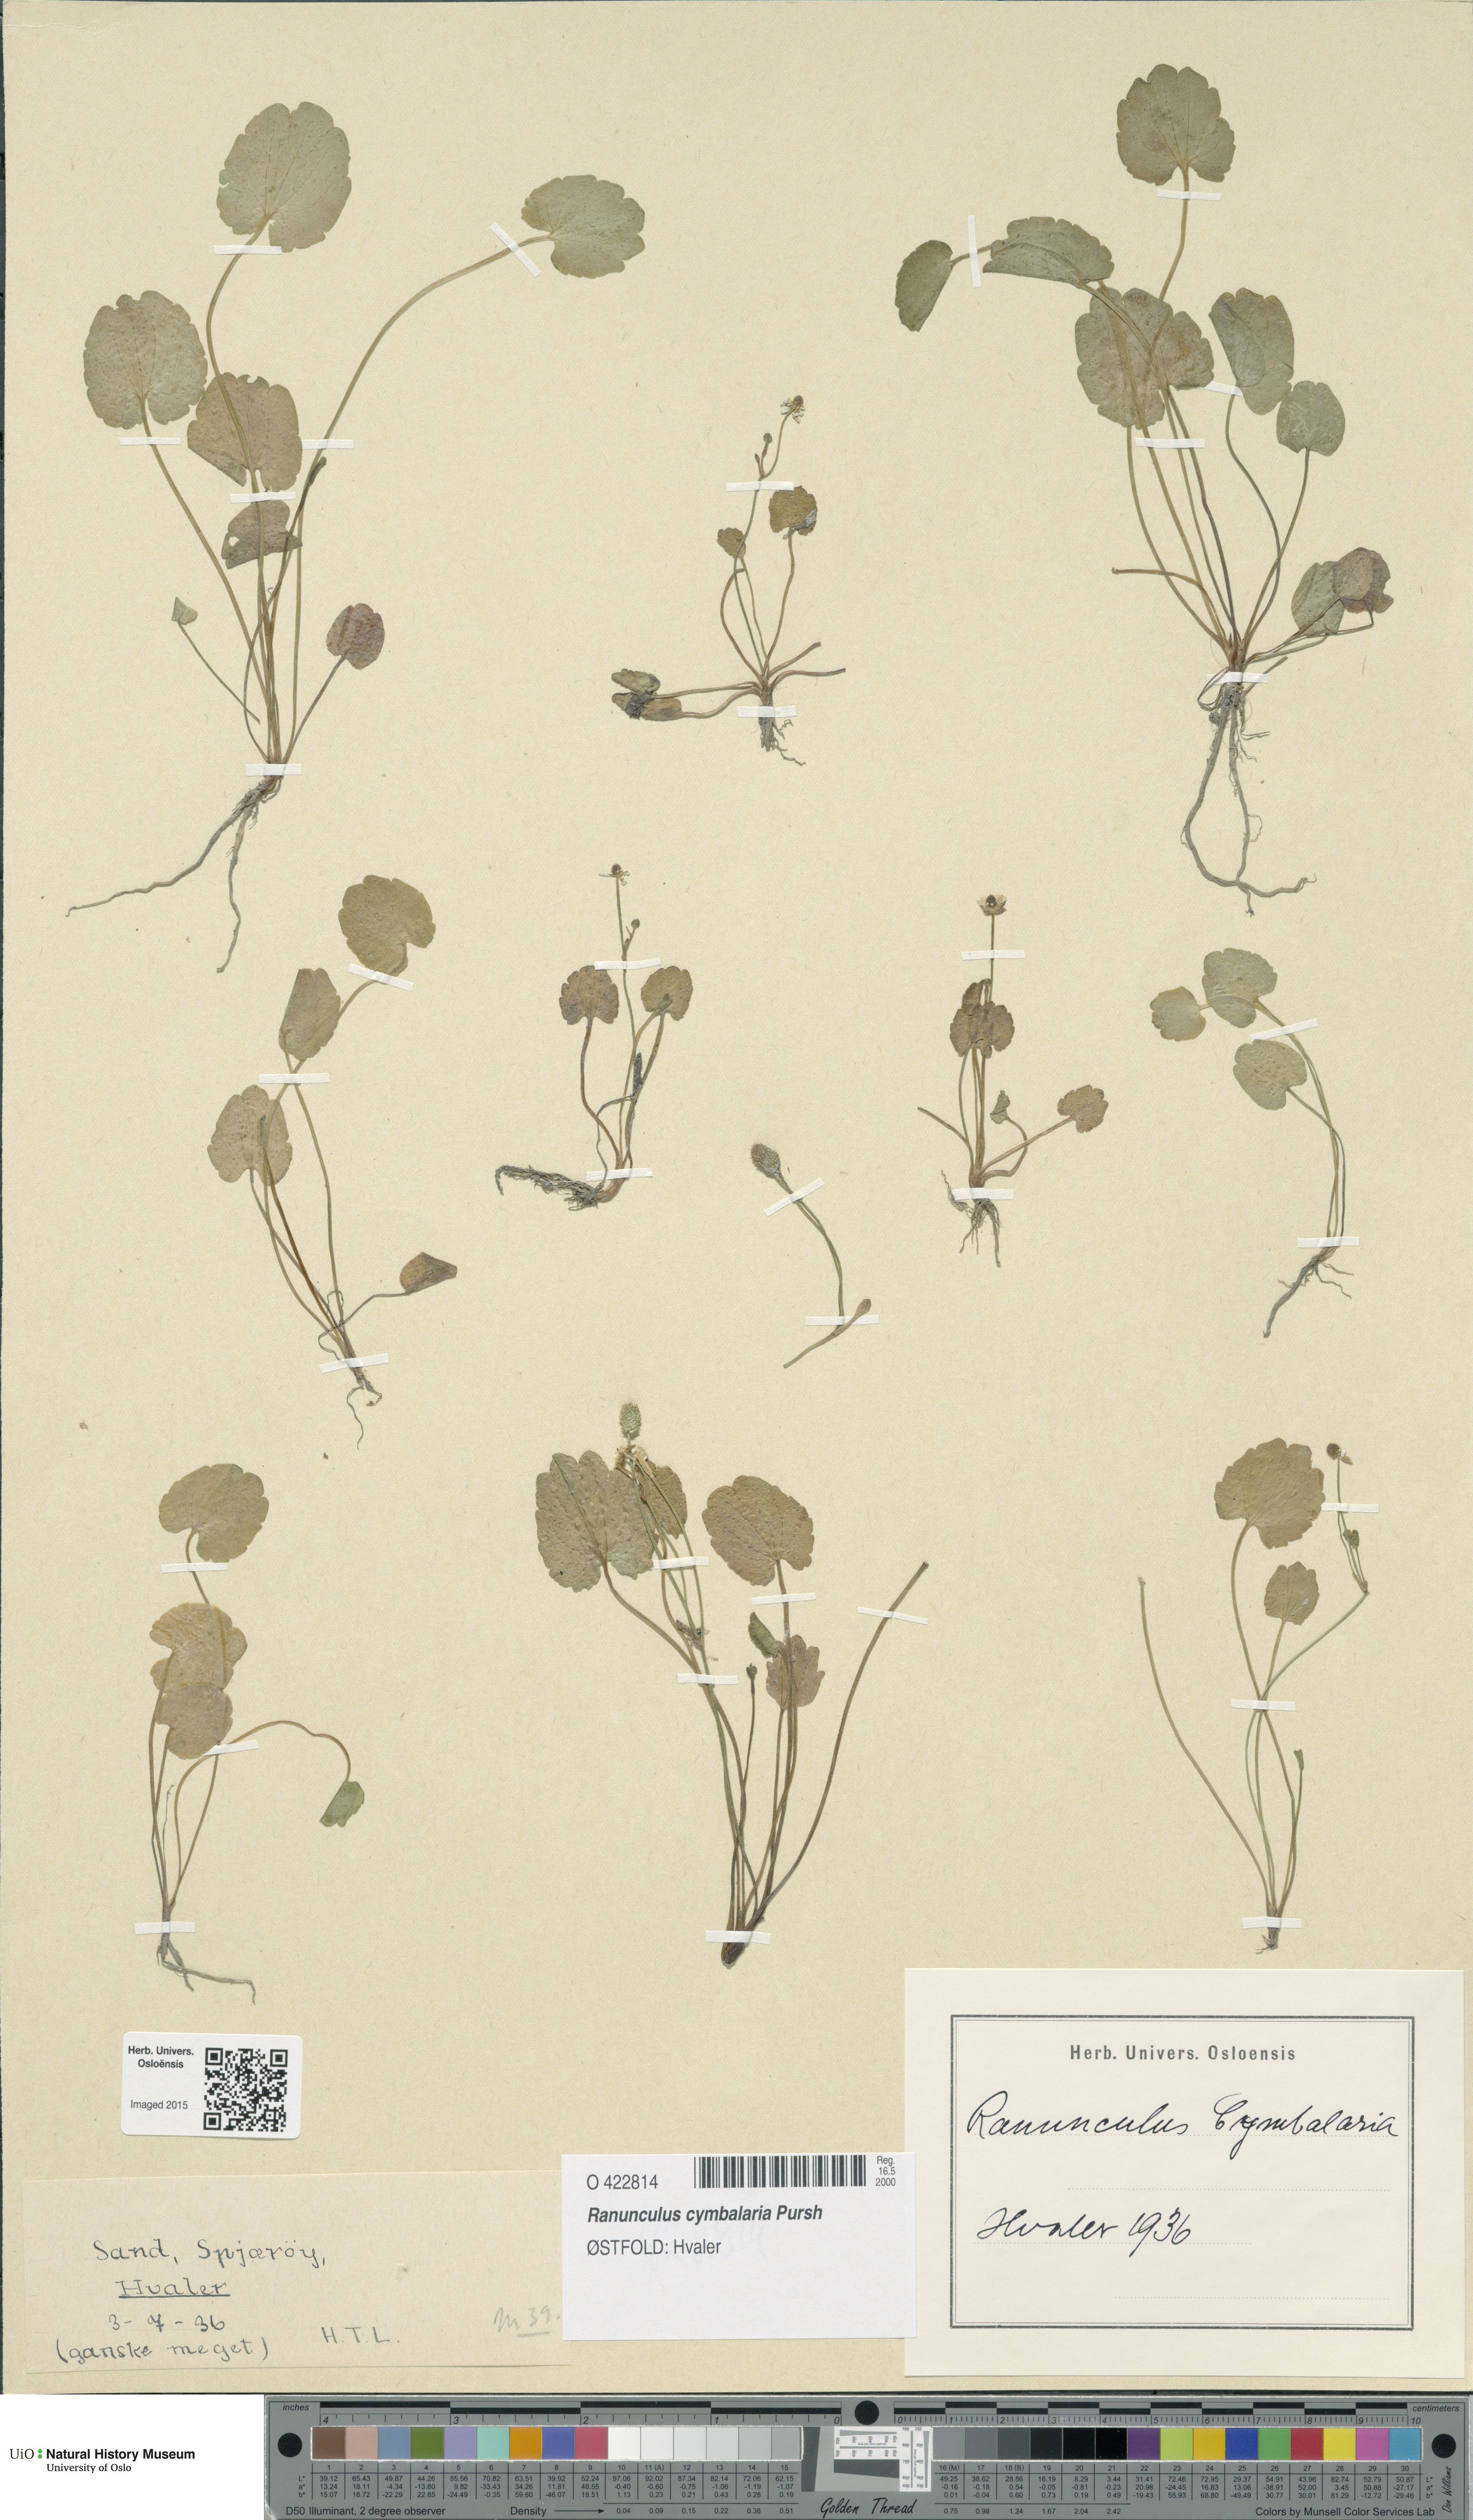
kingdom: Plantae
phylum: Tracheophyta
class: Magnoliopsida
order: Ranunculales
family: Ranunculaceae
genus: Halerpestes
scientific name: Halerpestes cymbalaria
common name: Seaside crowfoot
